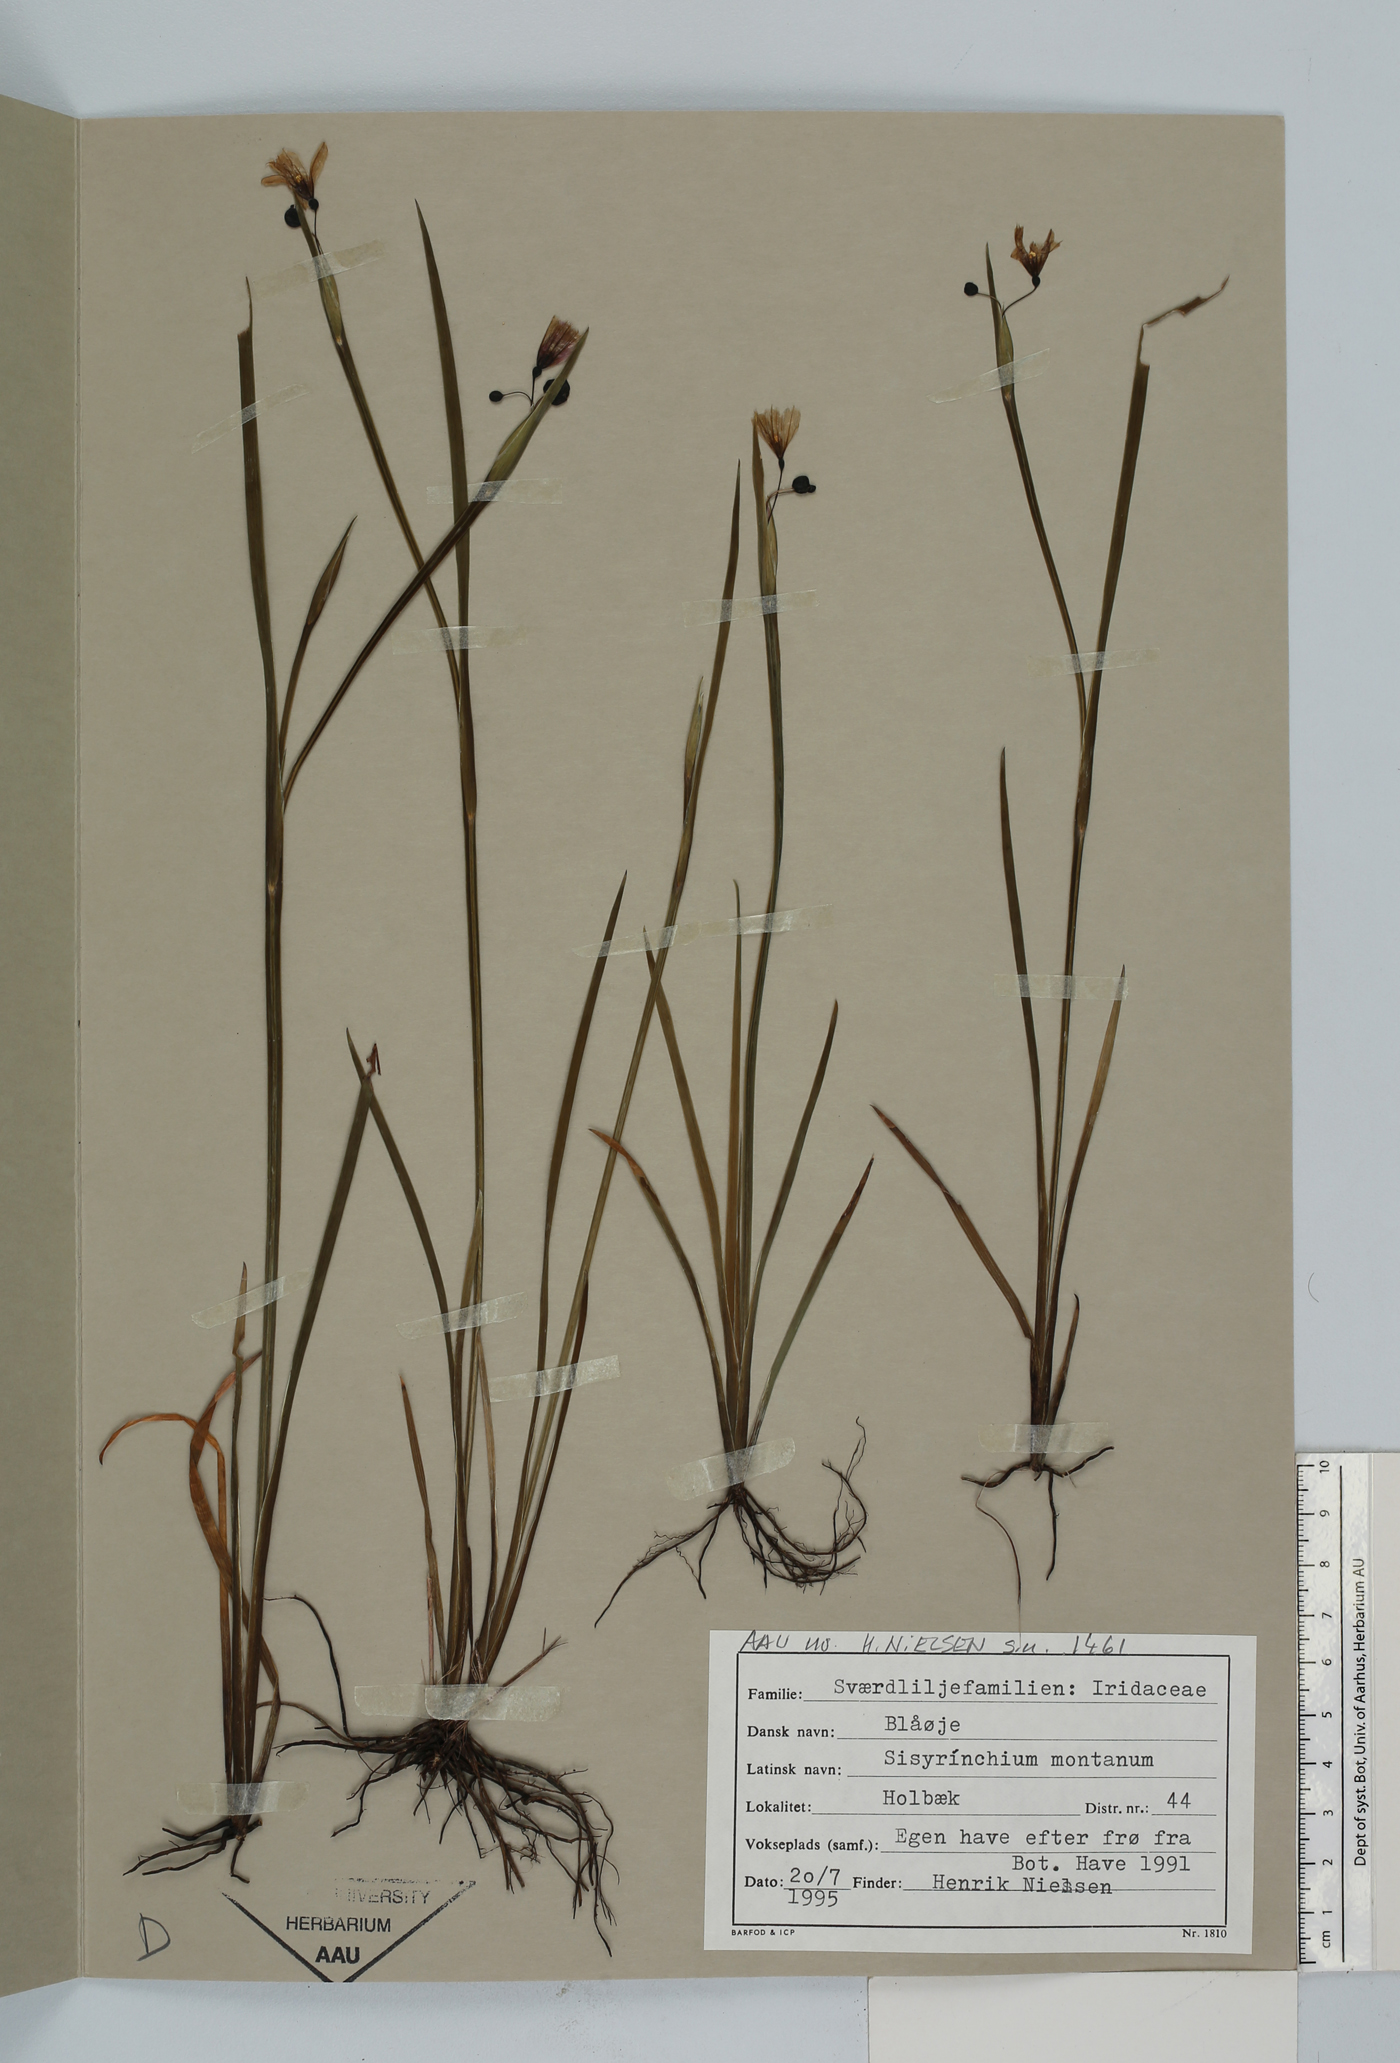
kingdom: Plantae
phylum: Tracheophyta
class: Liliopsida
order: Asparagales
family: Iridaceae
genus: Sisyrinchium
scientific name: Sisyrinchium montanum
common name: American blue-eyed-grass
